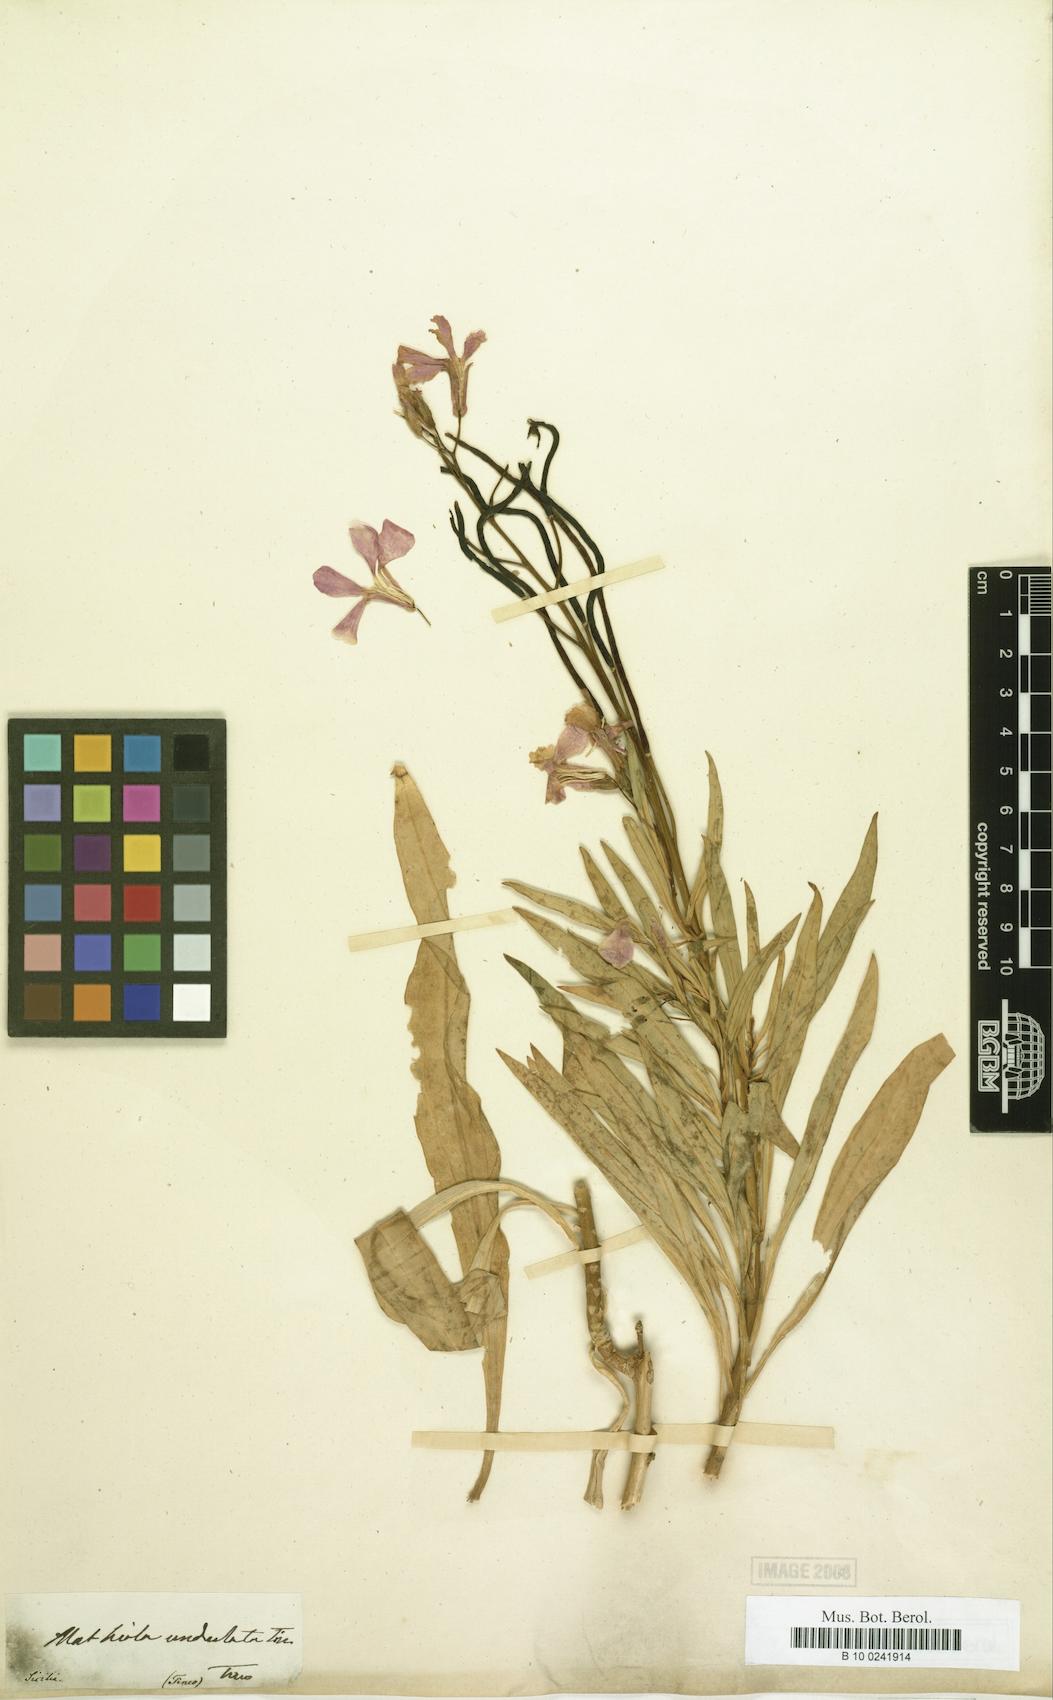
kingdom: Plantae
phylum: Tracheophyta
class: Magnoliopsida
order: Gentianales
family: Rubiaceae
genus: Guettarda
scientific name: Guettarda undulata
